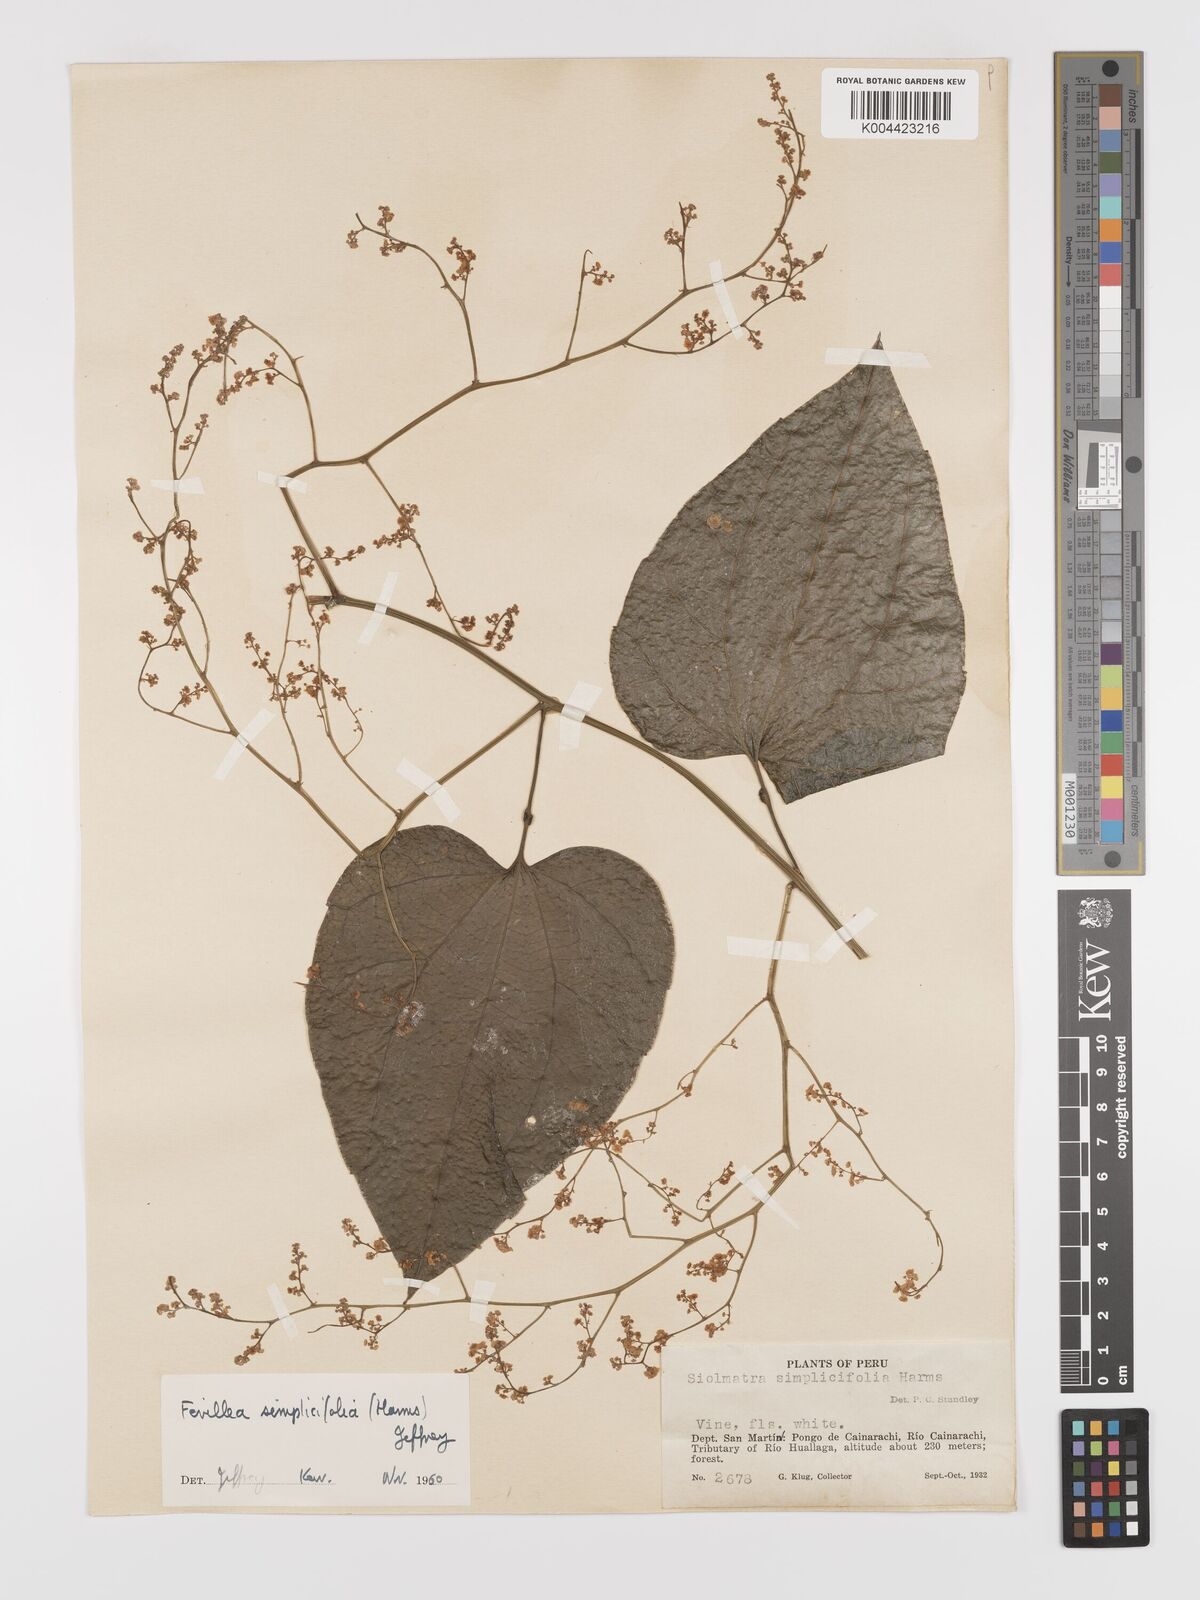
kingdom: Plantae
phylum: Tracheophyta
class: Magnoliopsida
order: Cucurbitales
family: Cucurbitaceae
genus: Fevillea
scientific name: Fevillea pedatifolia
